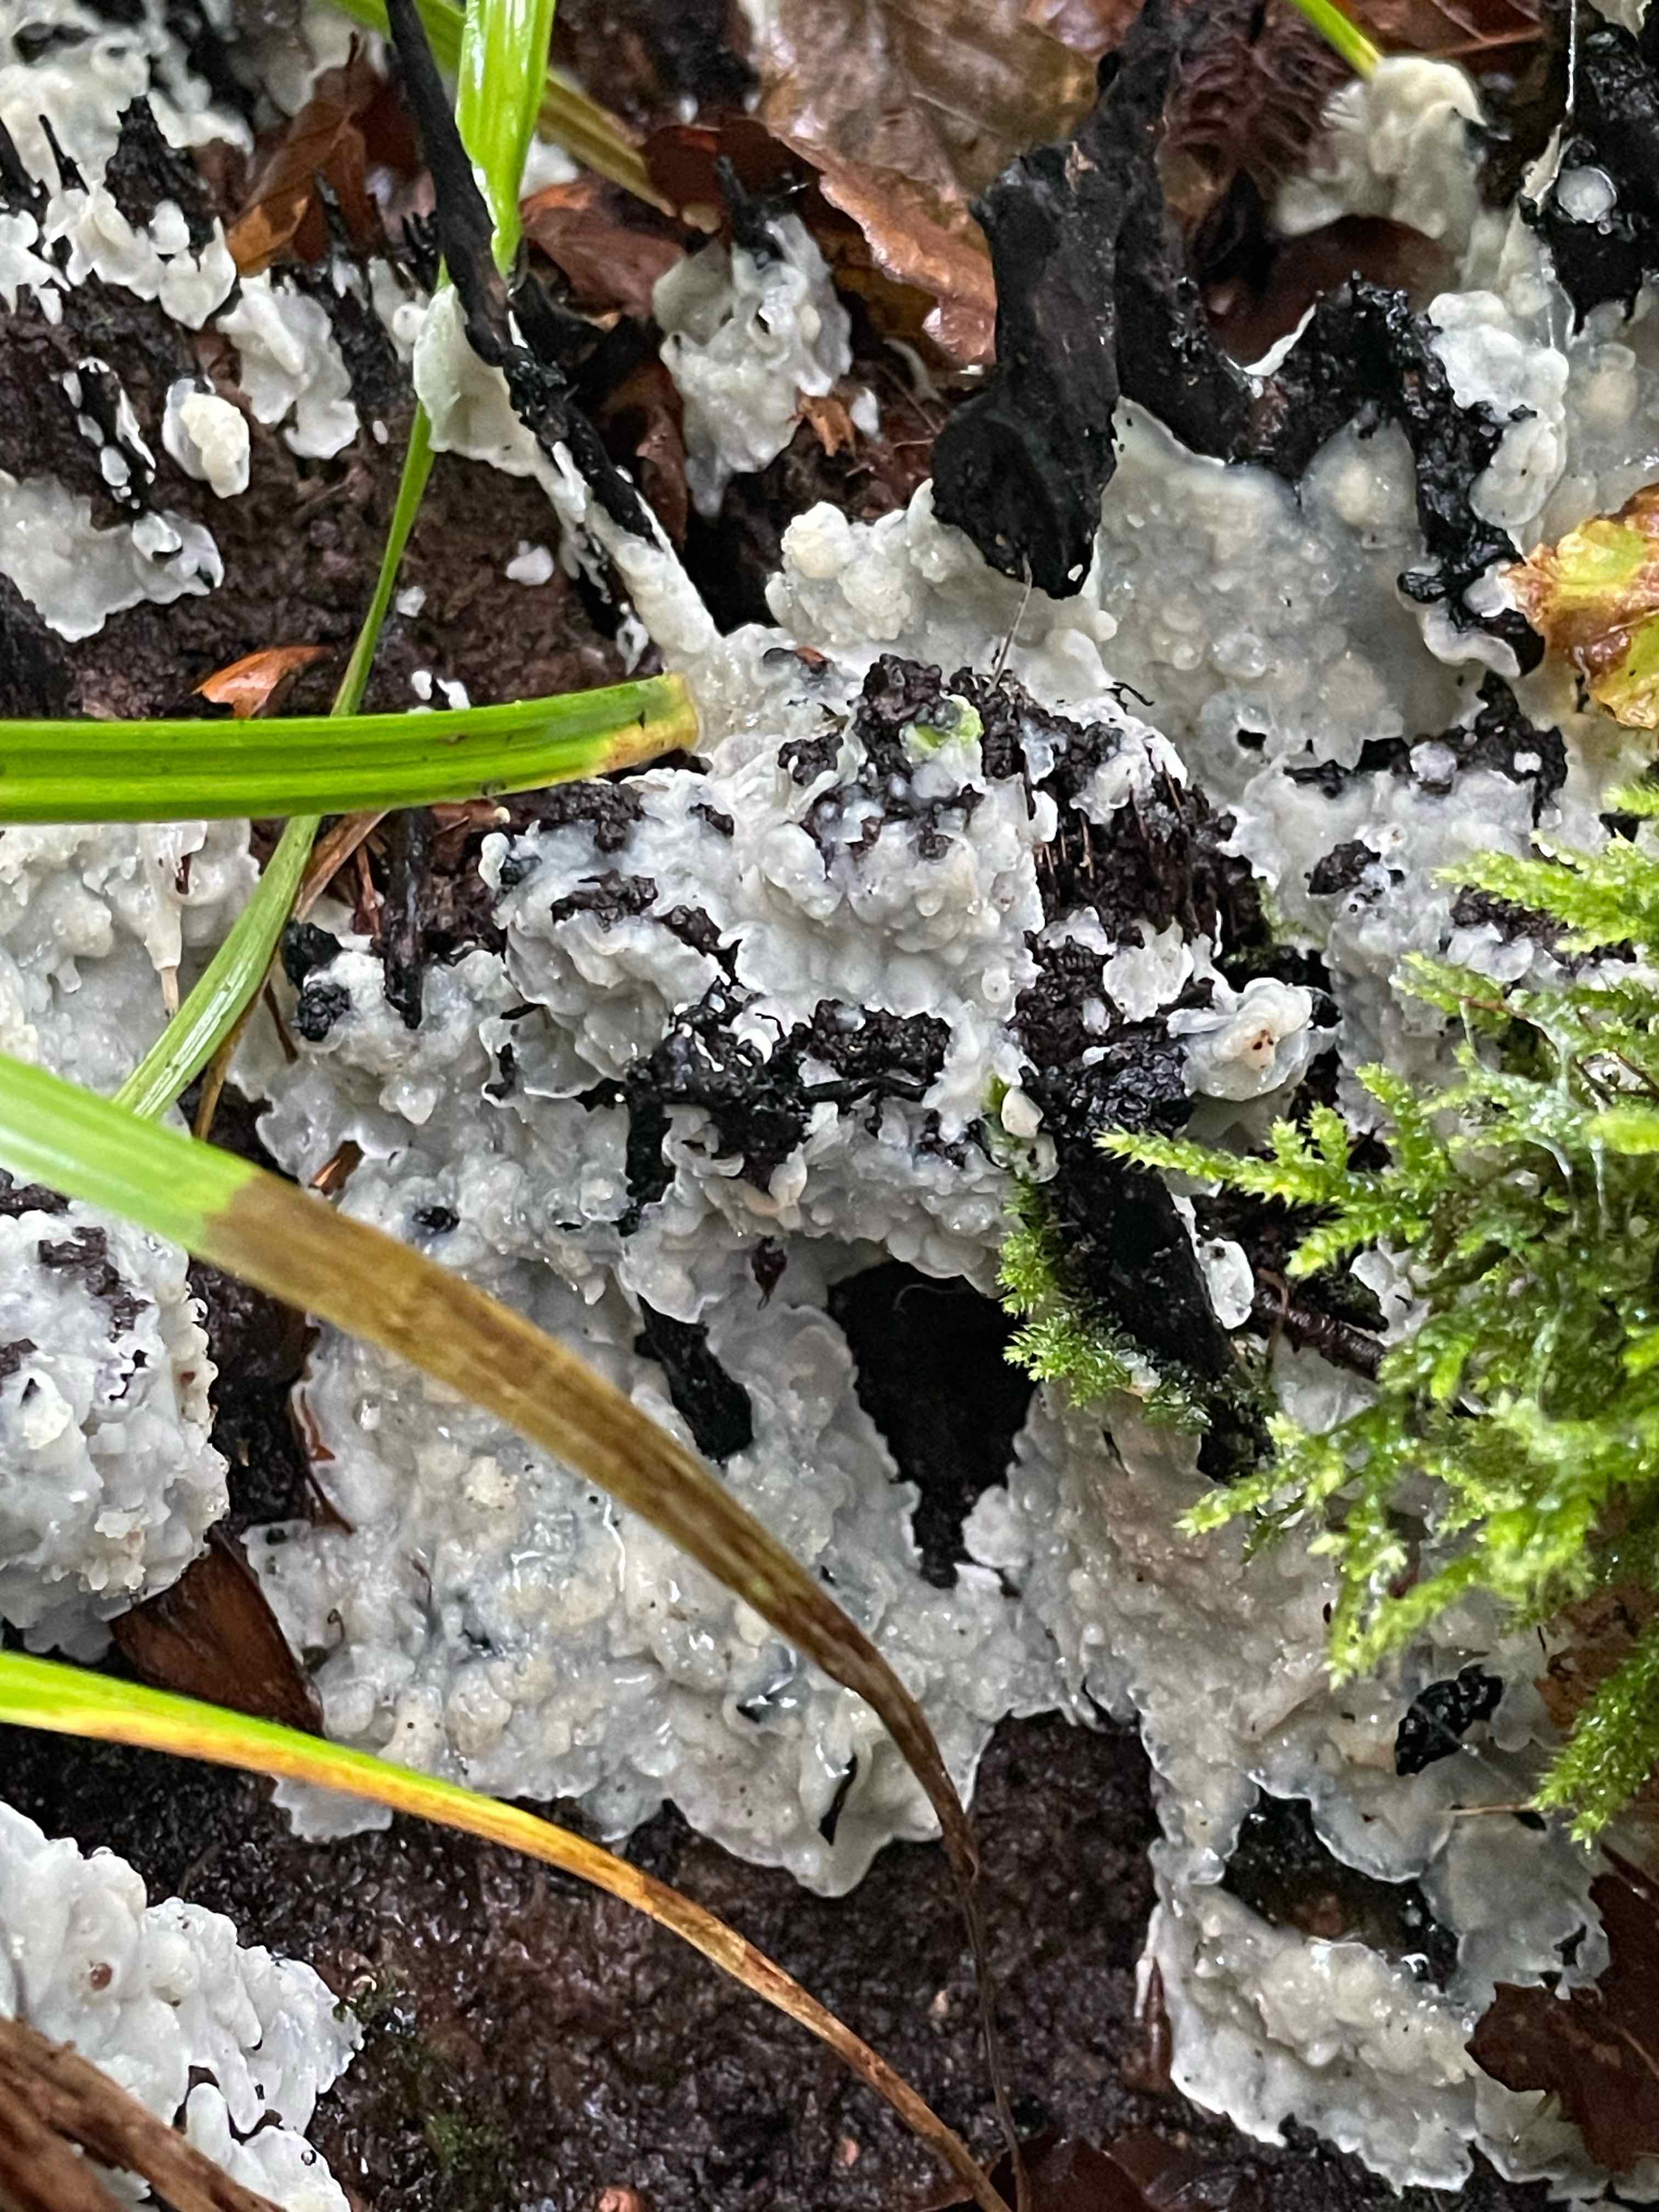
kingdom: Fungi
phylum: Basidiomycota
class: Agaricomycetes
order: Polyporales
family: Meruliaceae
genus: Physisporinus
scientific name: Physisporinus vitreus
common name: mastesvamp
